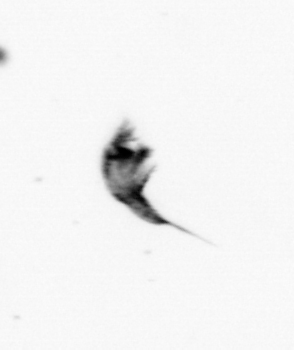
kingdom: Animalia
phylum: Arthropoda
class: Copepoda
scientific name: Copepoda
